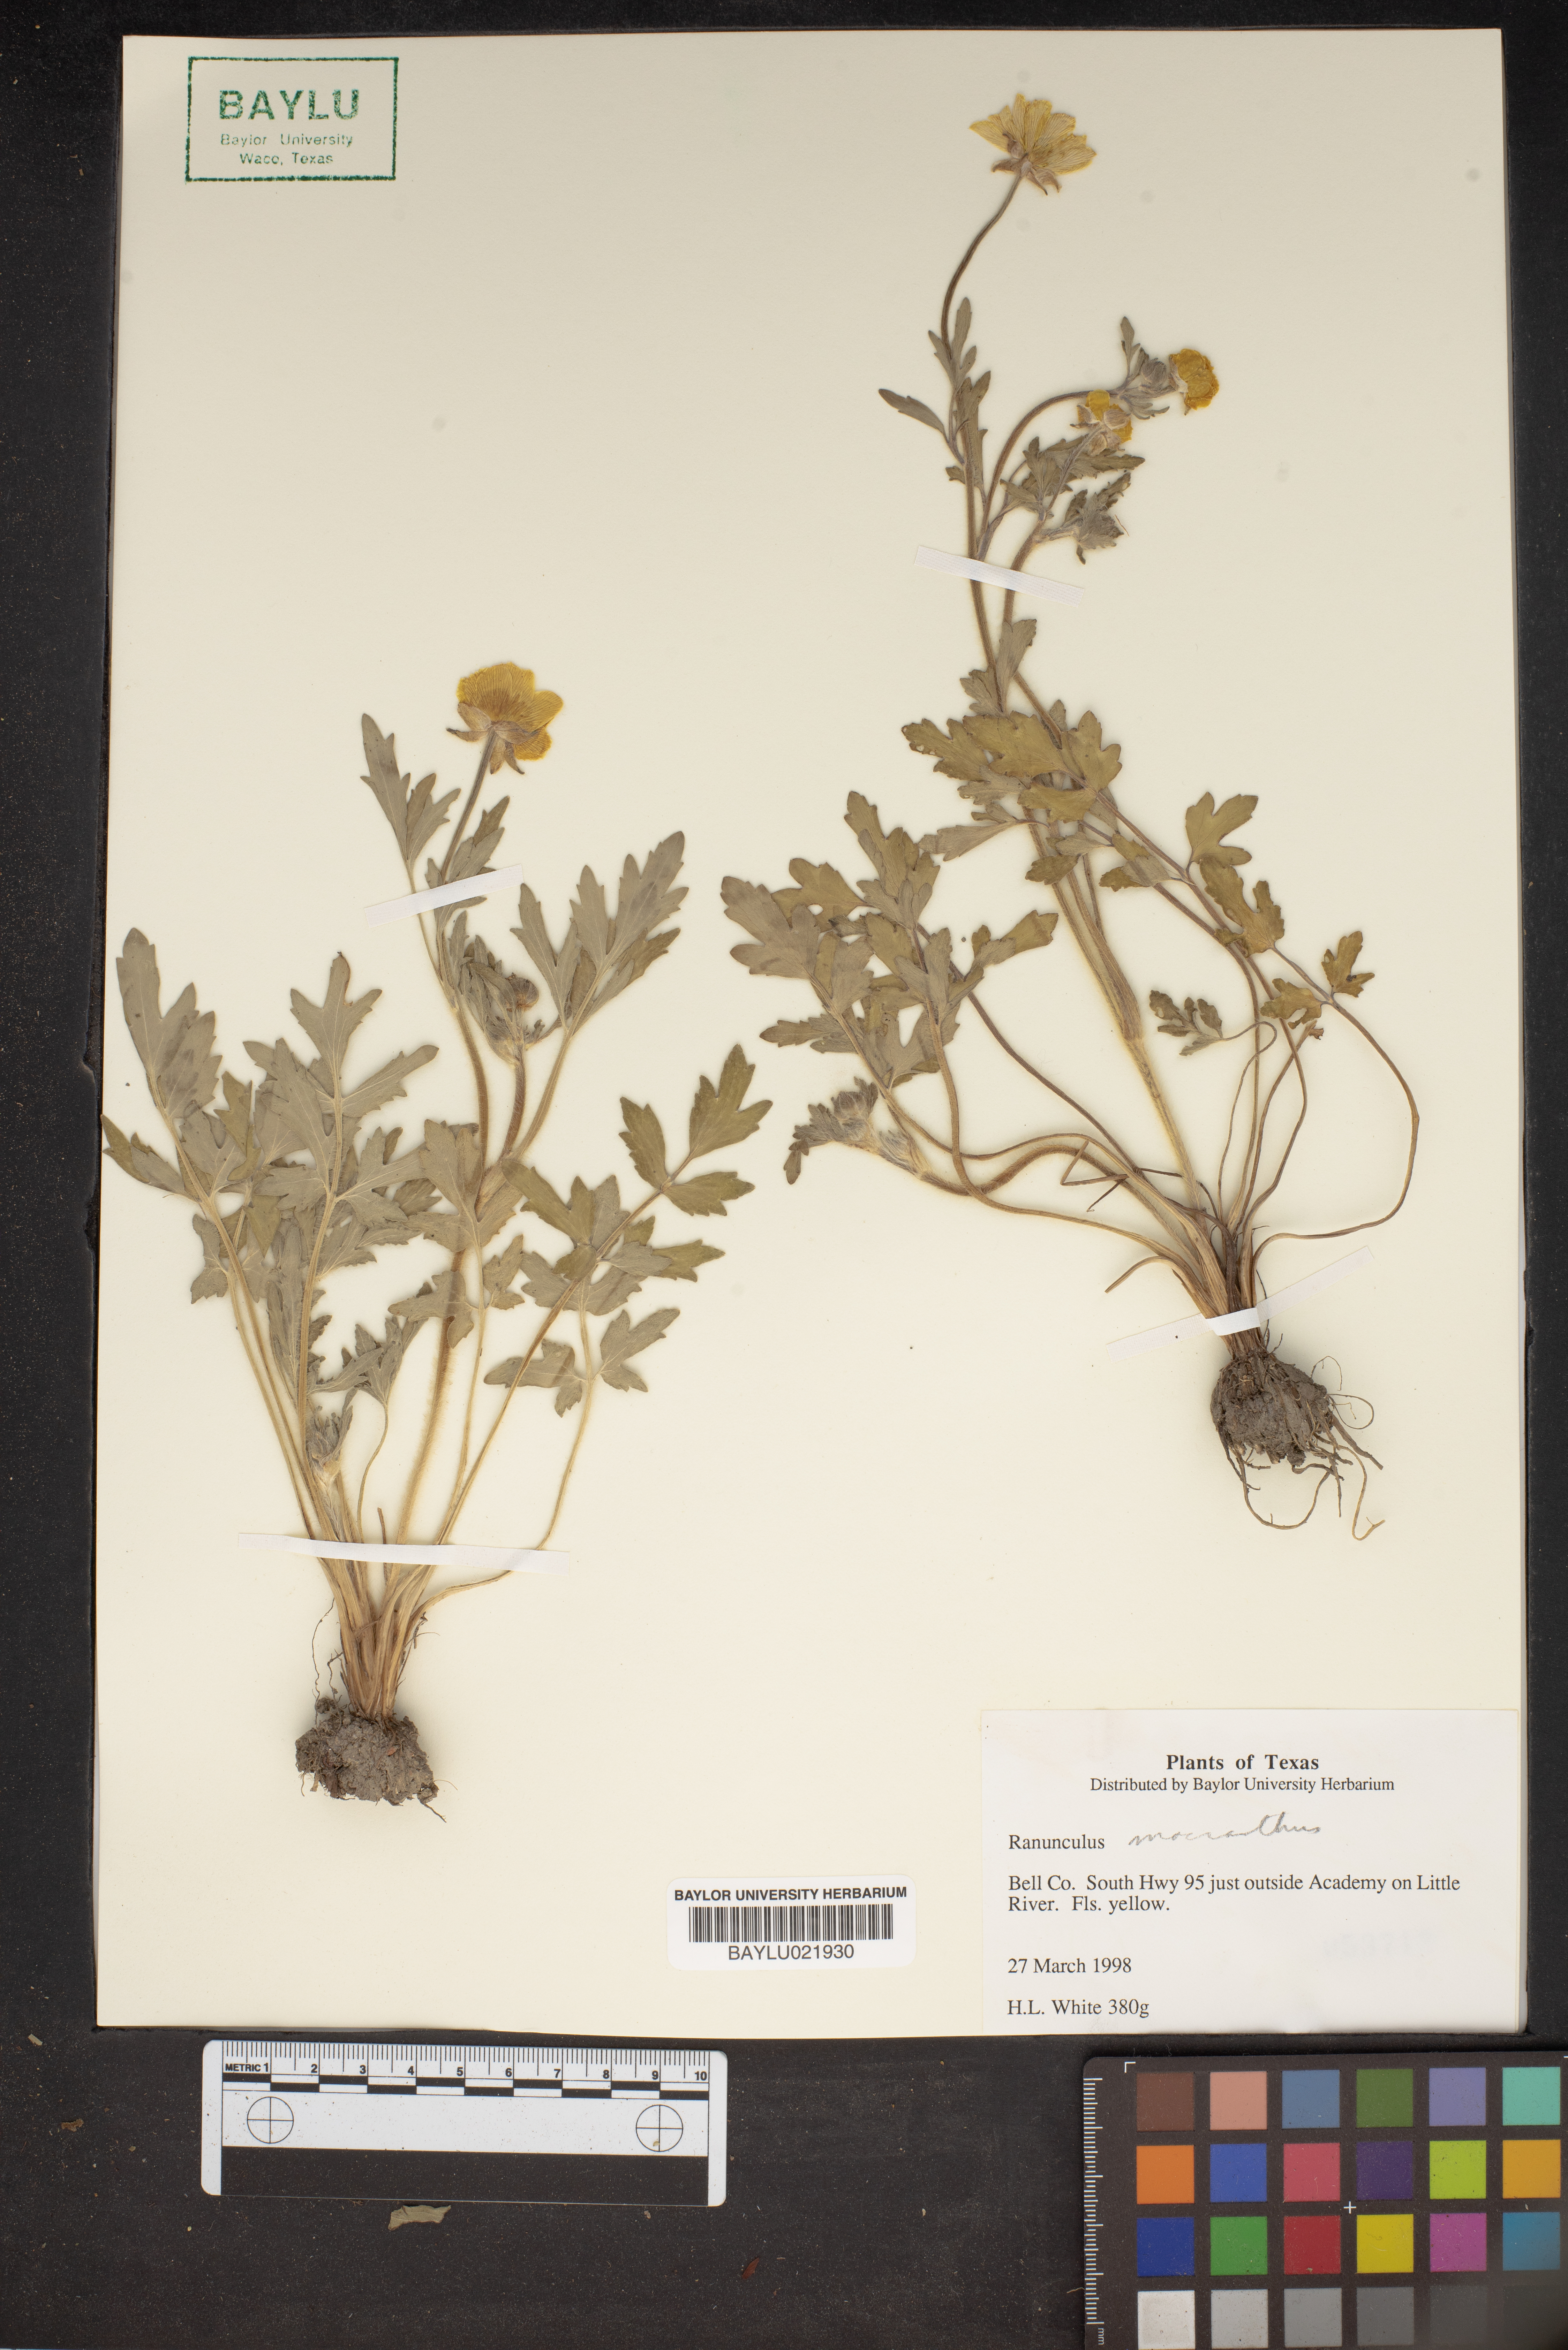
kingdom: Plantae
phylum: Tracheophyta
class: Magnoliopsida
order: Ranunculales
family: Ranunculaceae
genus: Ranunculus
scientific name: Ranunculus macranthus
